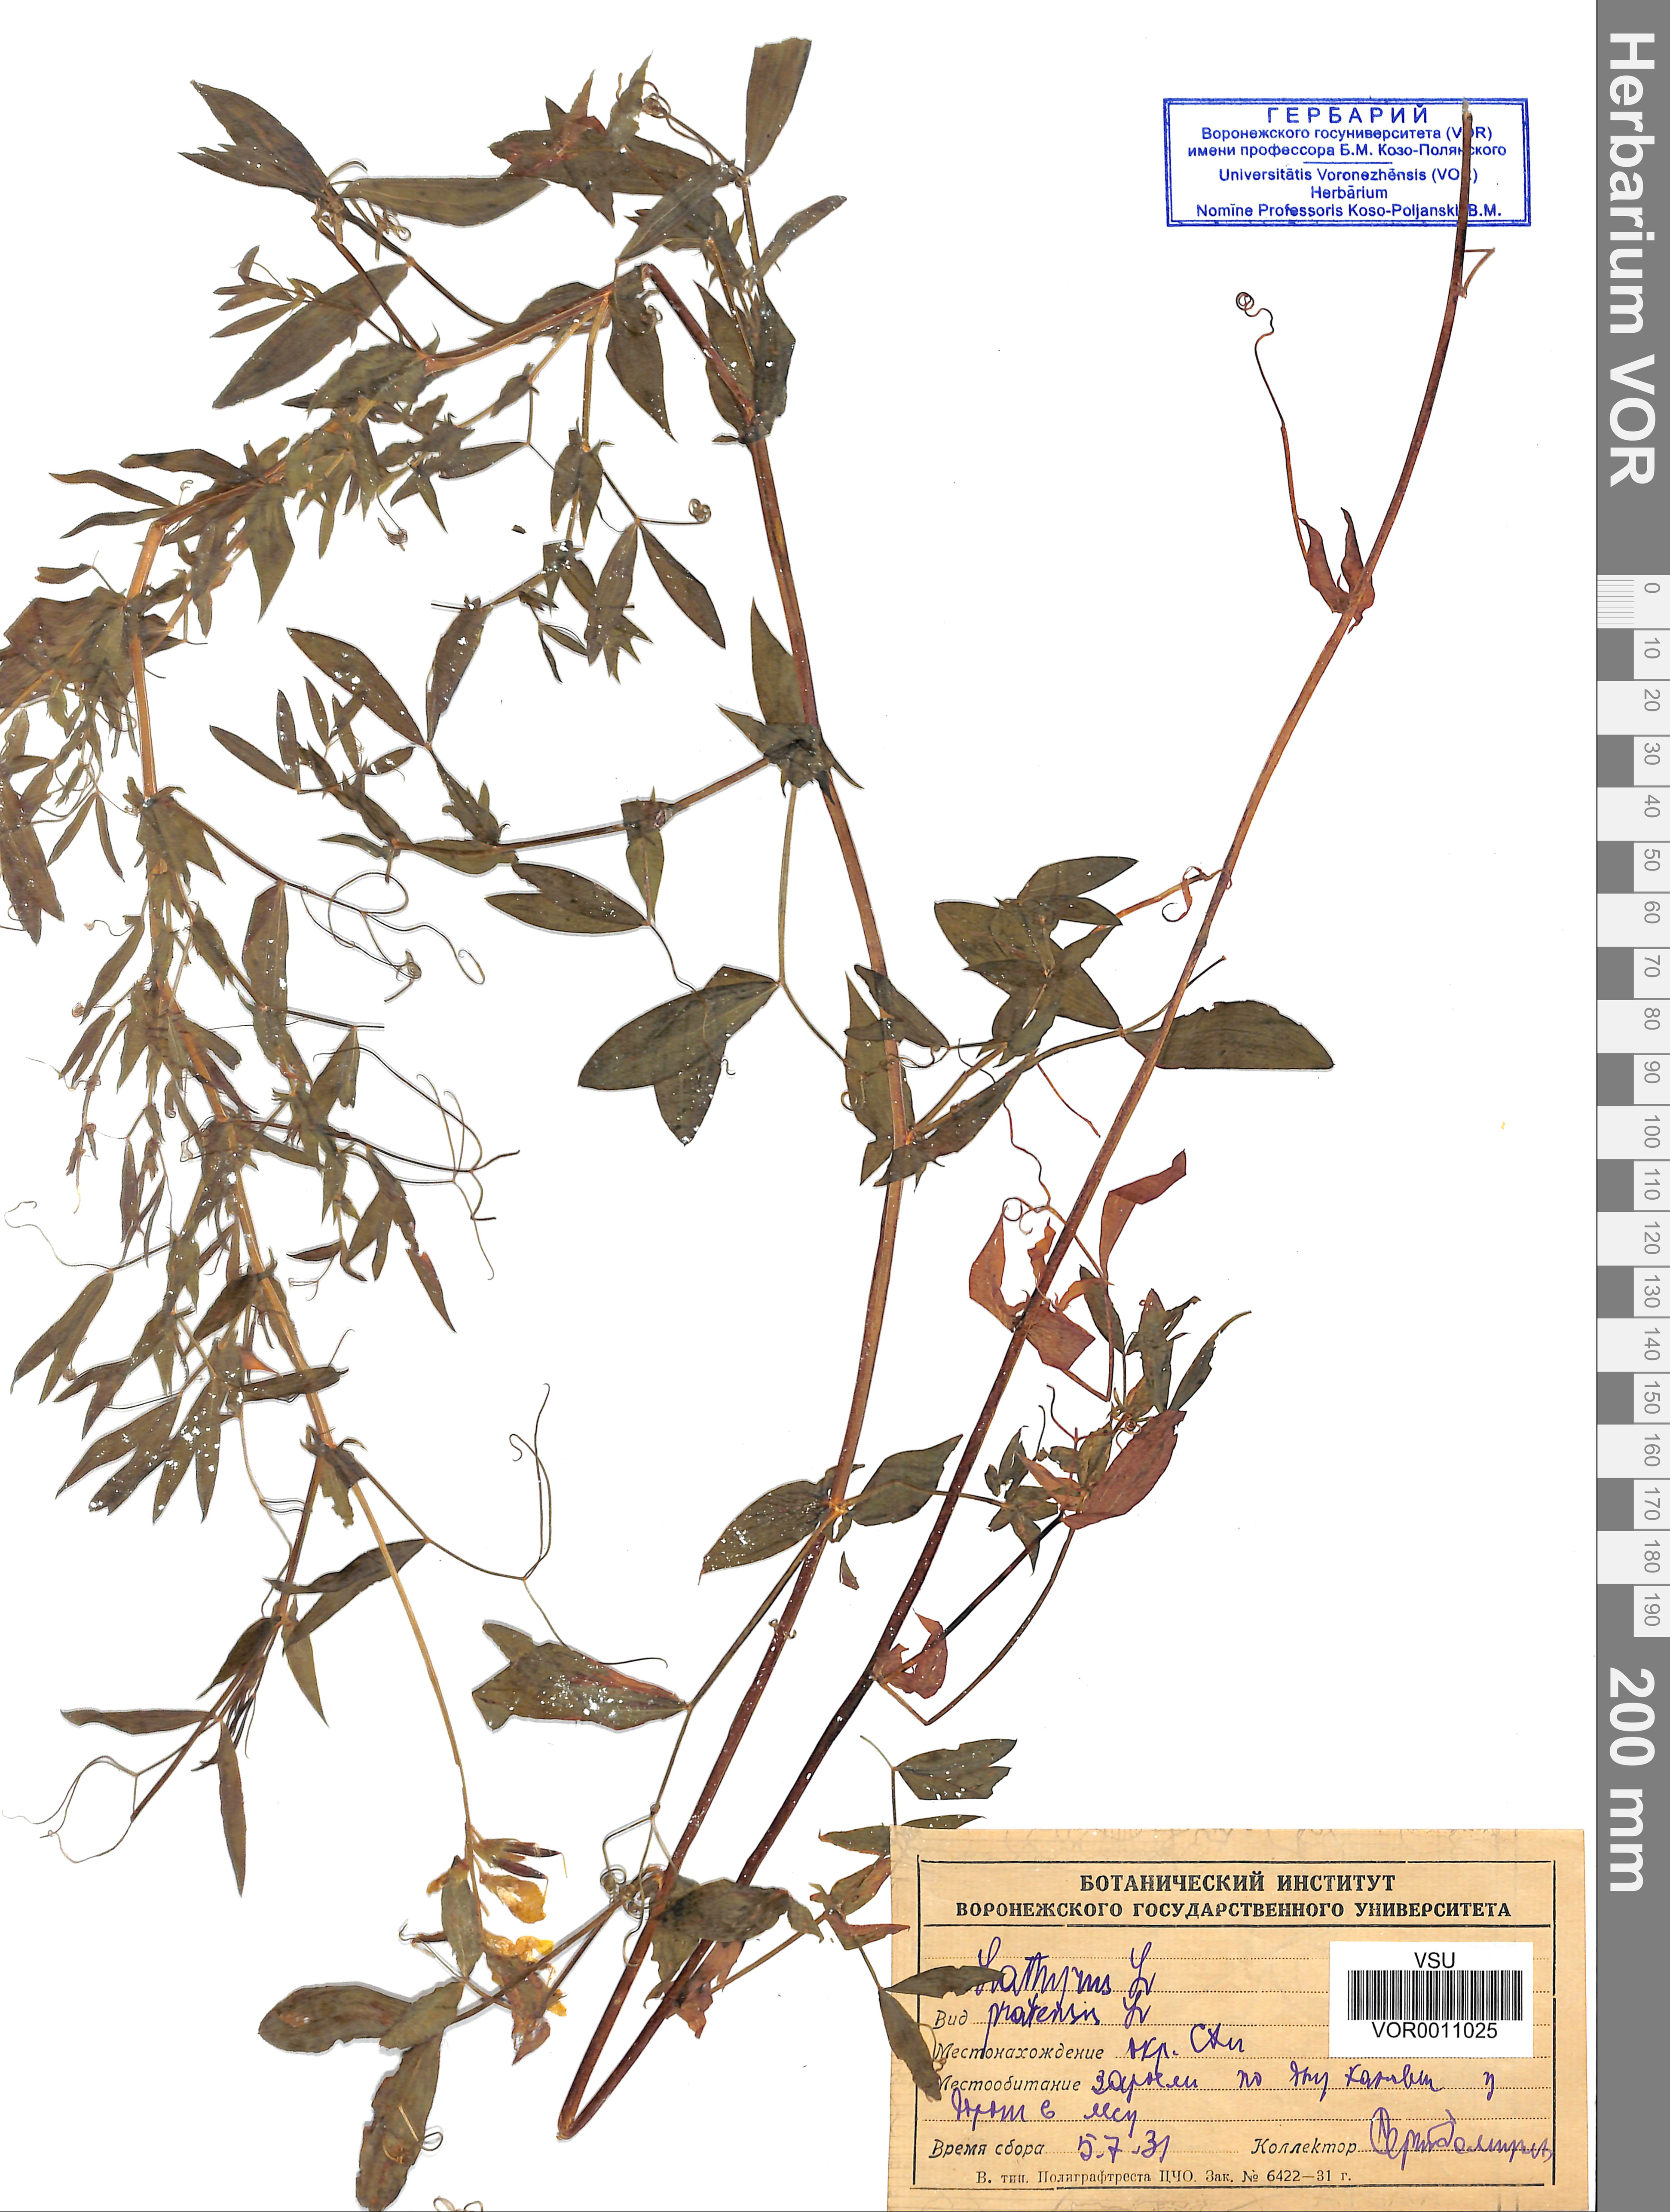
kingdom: Plantae
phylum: Tracheophyta
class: Magnoliopsida
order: Fabales
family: Fabaceae
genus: Lathyrus
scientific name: Lathyrus pratensis
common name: Meadow vetchling
